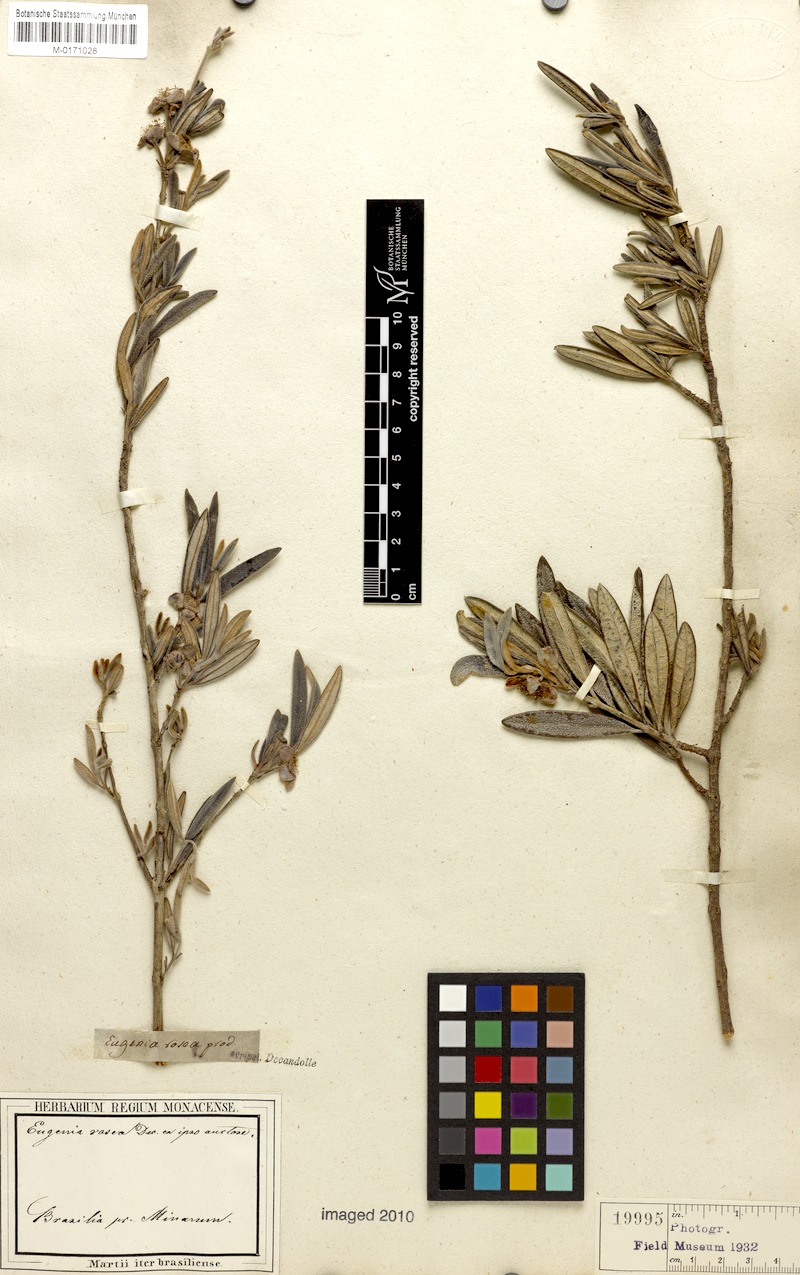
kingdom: Plantae
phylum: Tracheophyta
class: Magnoliopsida
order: Myrtales
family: Myrtaceae
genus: Eugenia
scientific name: Eugenia rosea
